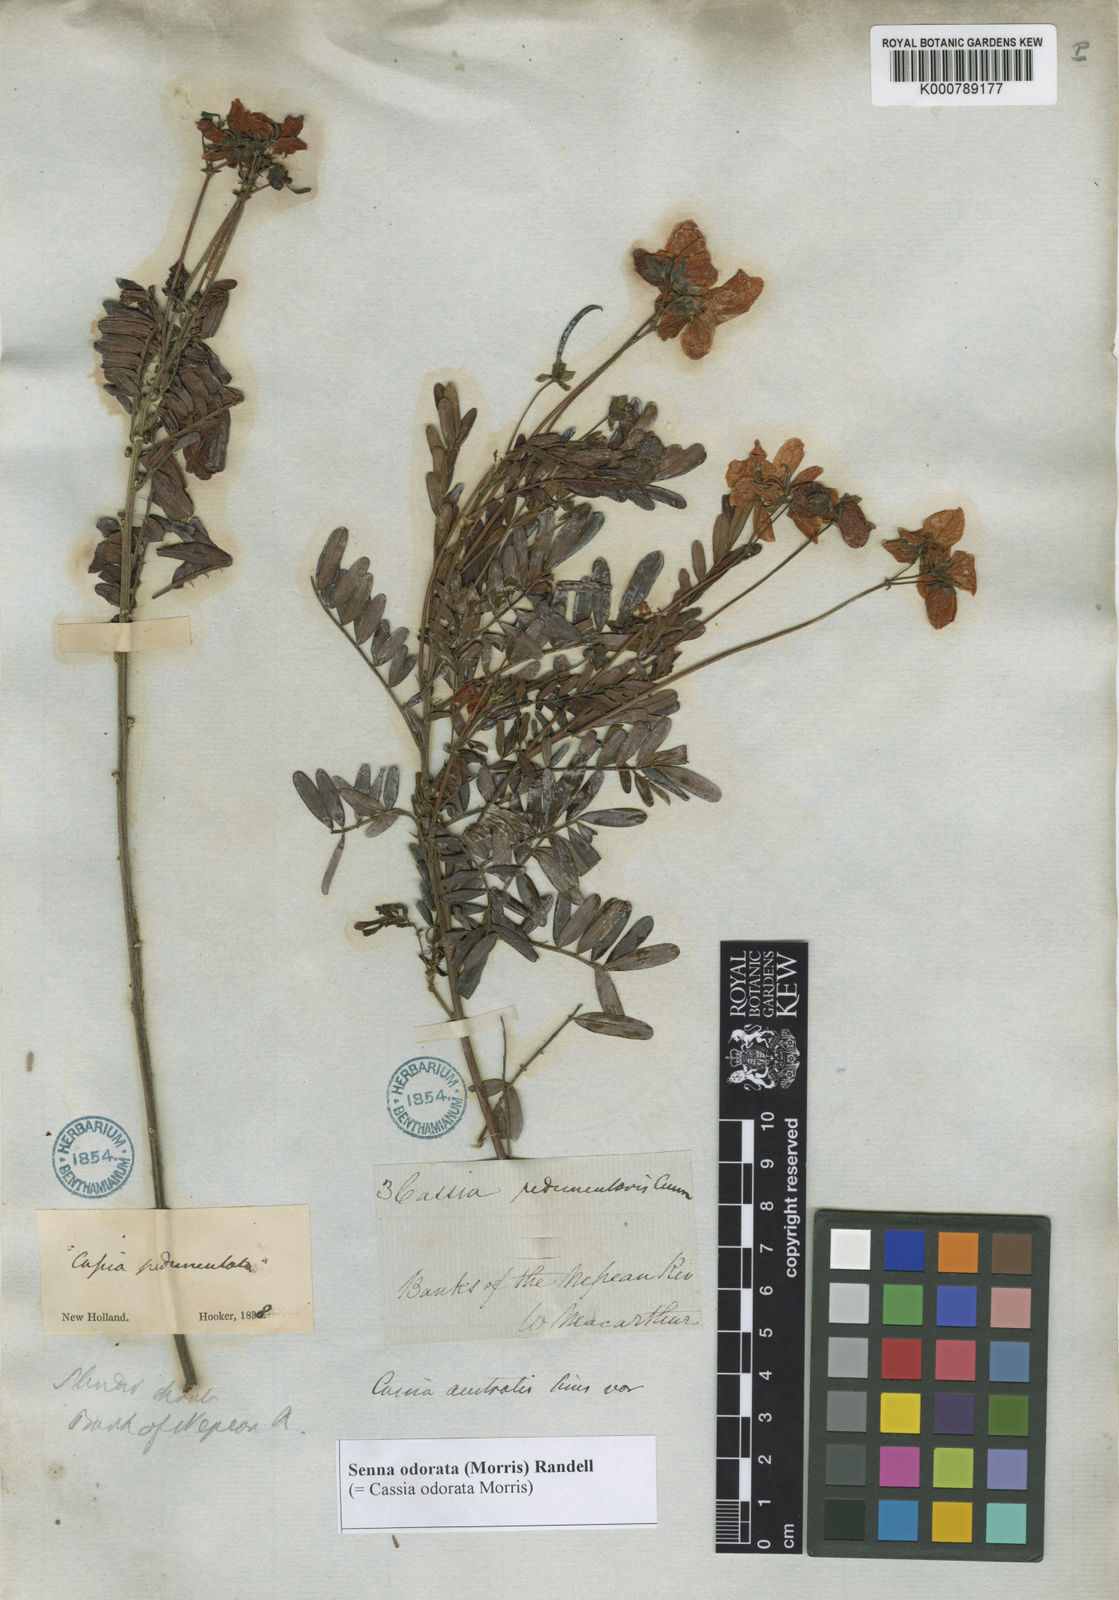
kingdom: Plantae
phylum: Tracheophyta
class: Magnoliopsida
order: Fabales
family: Fabaceae
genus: Senna
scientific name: Senna barronfieldii
